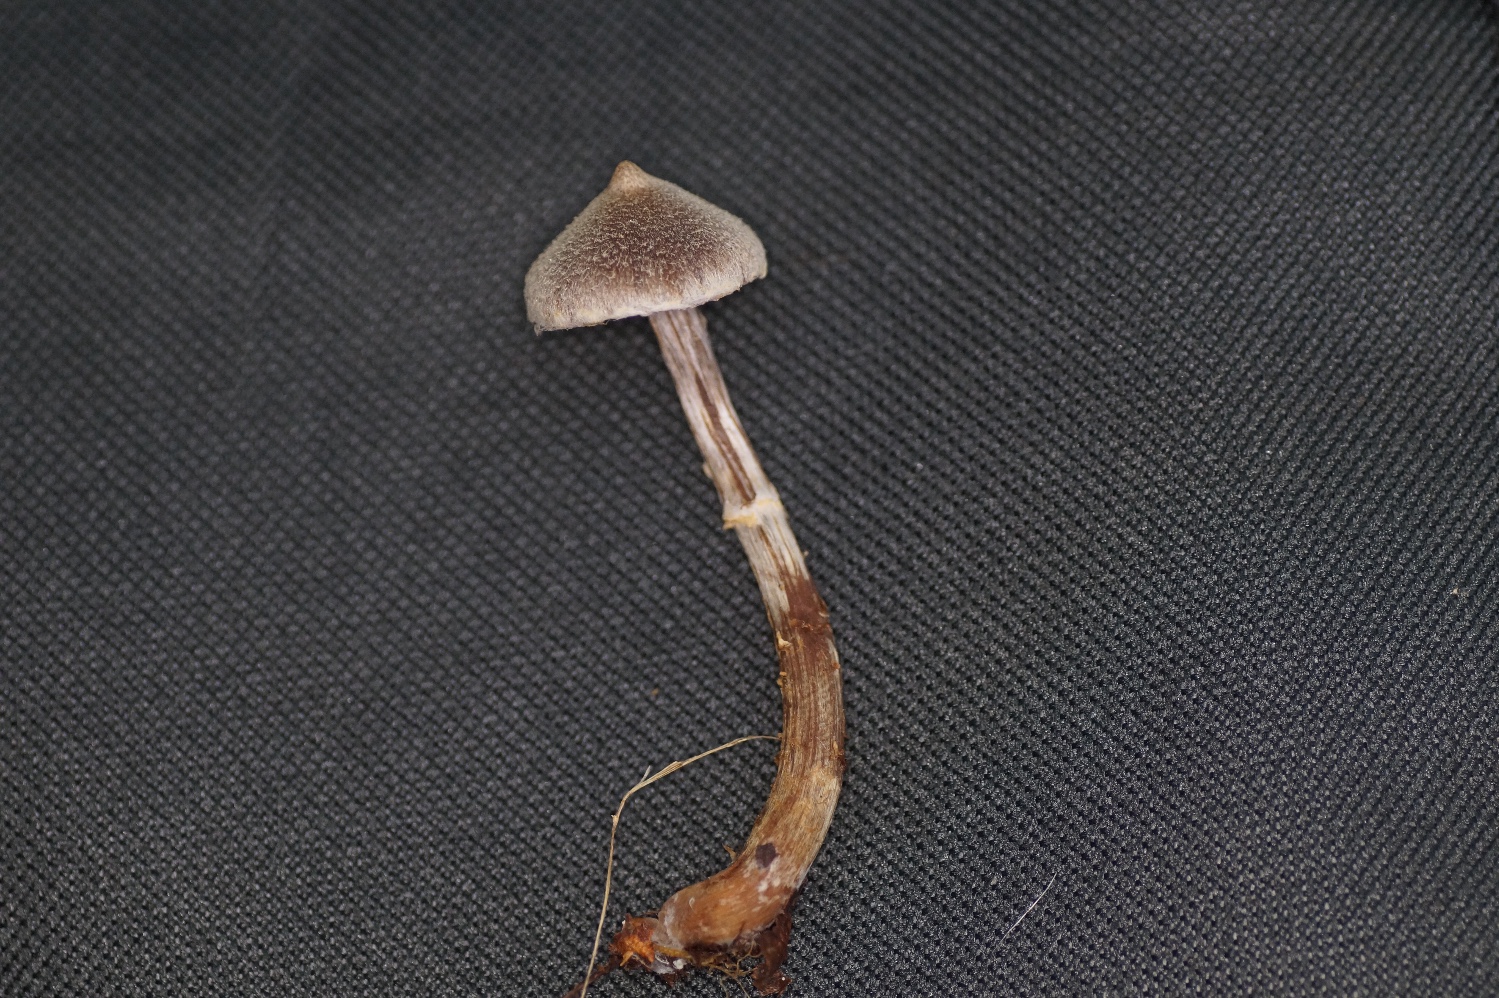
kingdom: Fungi
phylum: Basidiomycota
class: Agaricomycetes
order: Agaricales
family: Cortinariaceae
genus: Cortinarius
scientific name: Cortinarius
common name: pelargonie-slørhat
